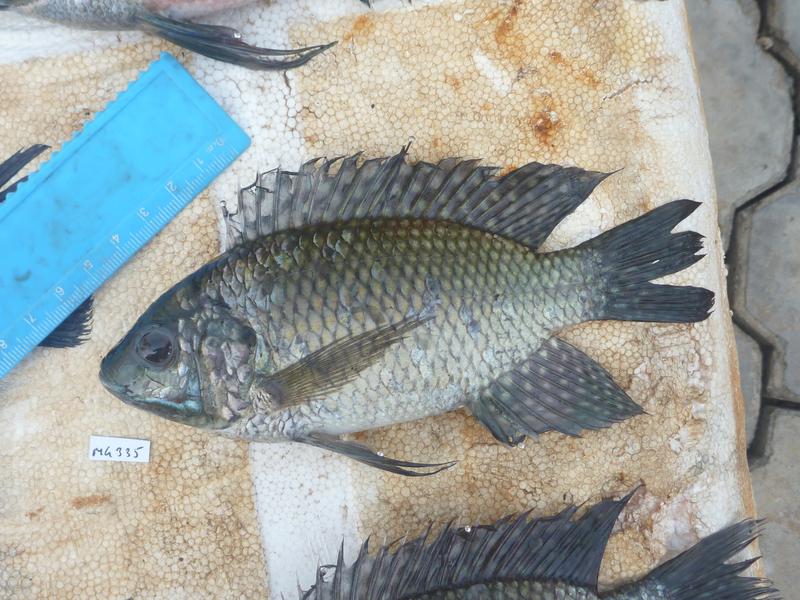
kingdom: Animalia
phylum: Chordata
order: Perciformes
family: Cichlidae
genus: Oreochromis
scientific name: Oreochromis leucostictus
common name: Blue spotted tilapia
